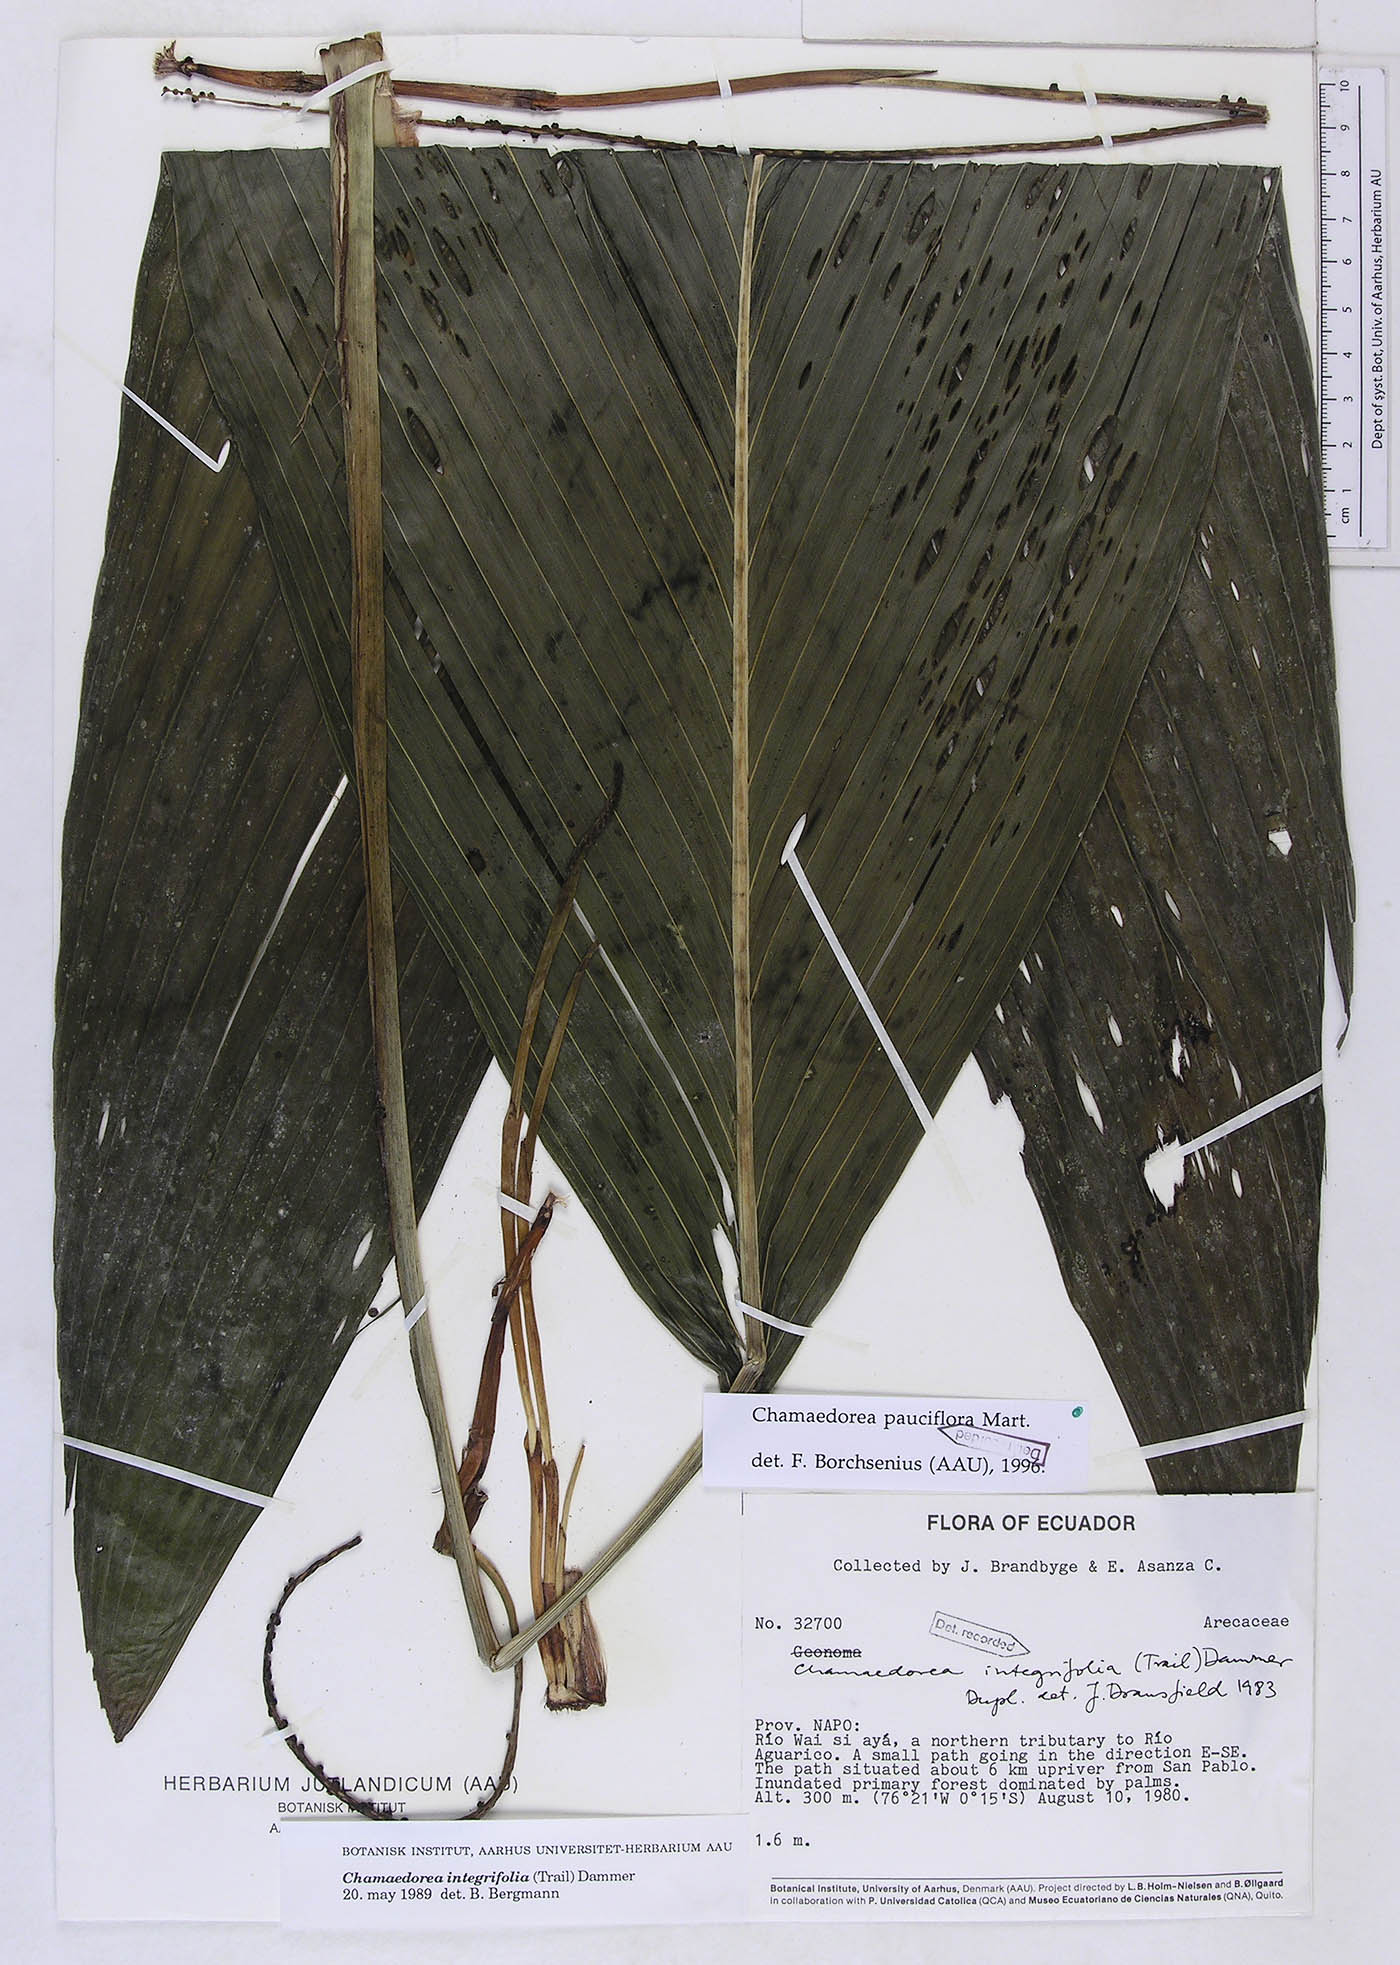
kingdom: Plantae
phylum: Tracheophyta
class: Liliopsida
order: Arecales
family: Arecaceae
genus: Chamaedorea
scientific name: Chamaedorea pauciflora
